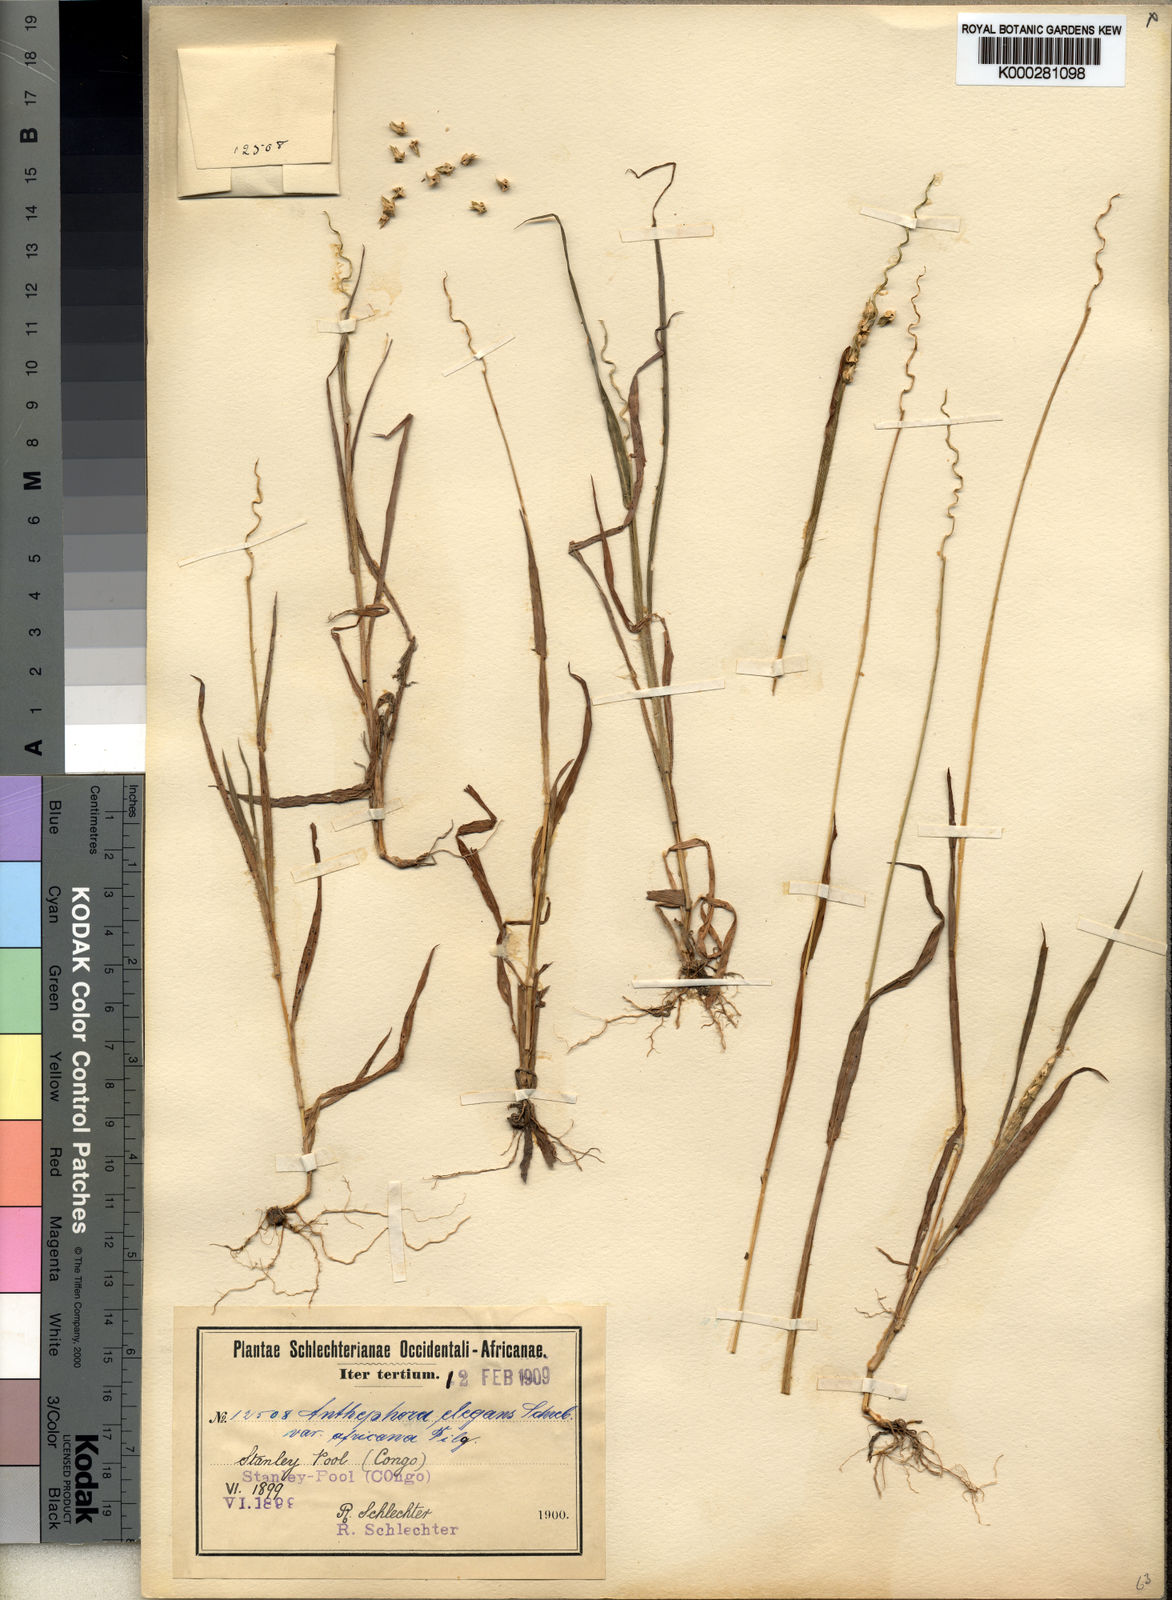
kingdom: Plantae
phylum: Tracheophyta
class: Liliopsida
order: Poales
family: Poaceae
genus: Anthephora
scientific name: Anthephora
